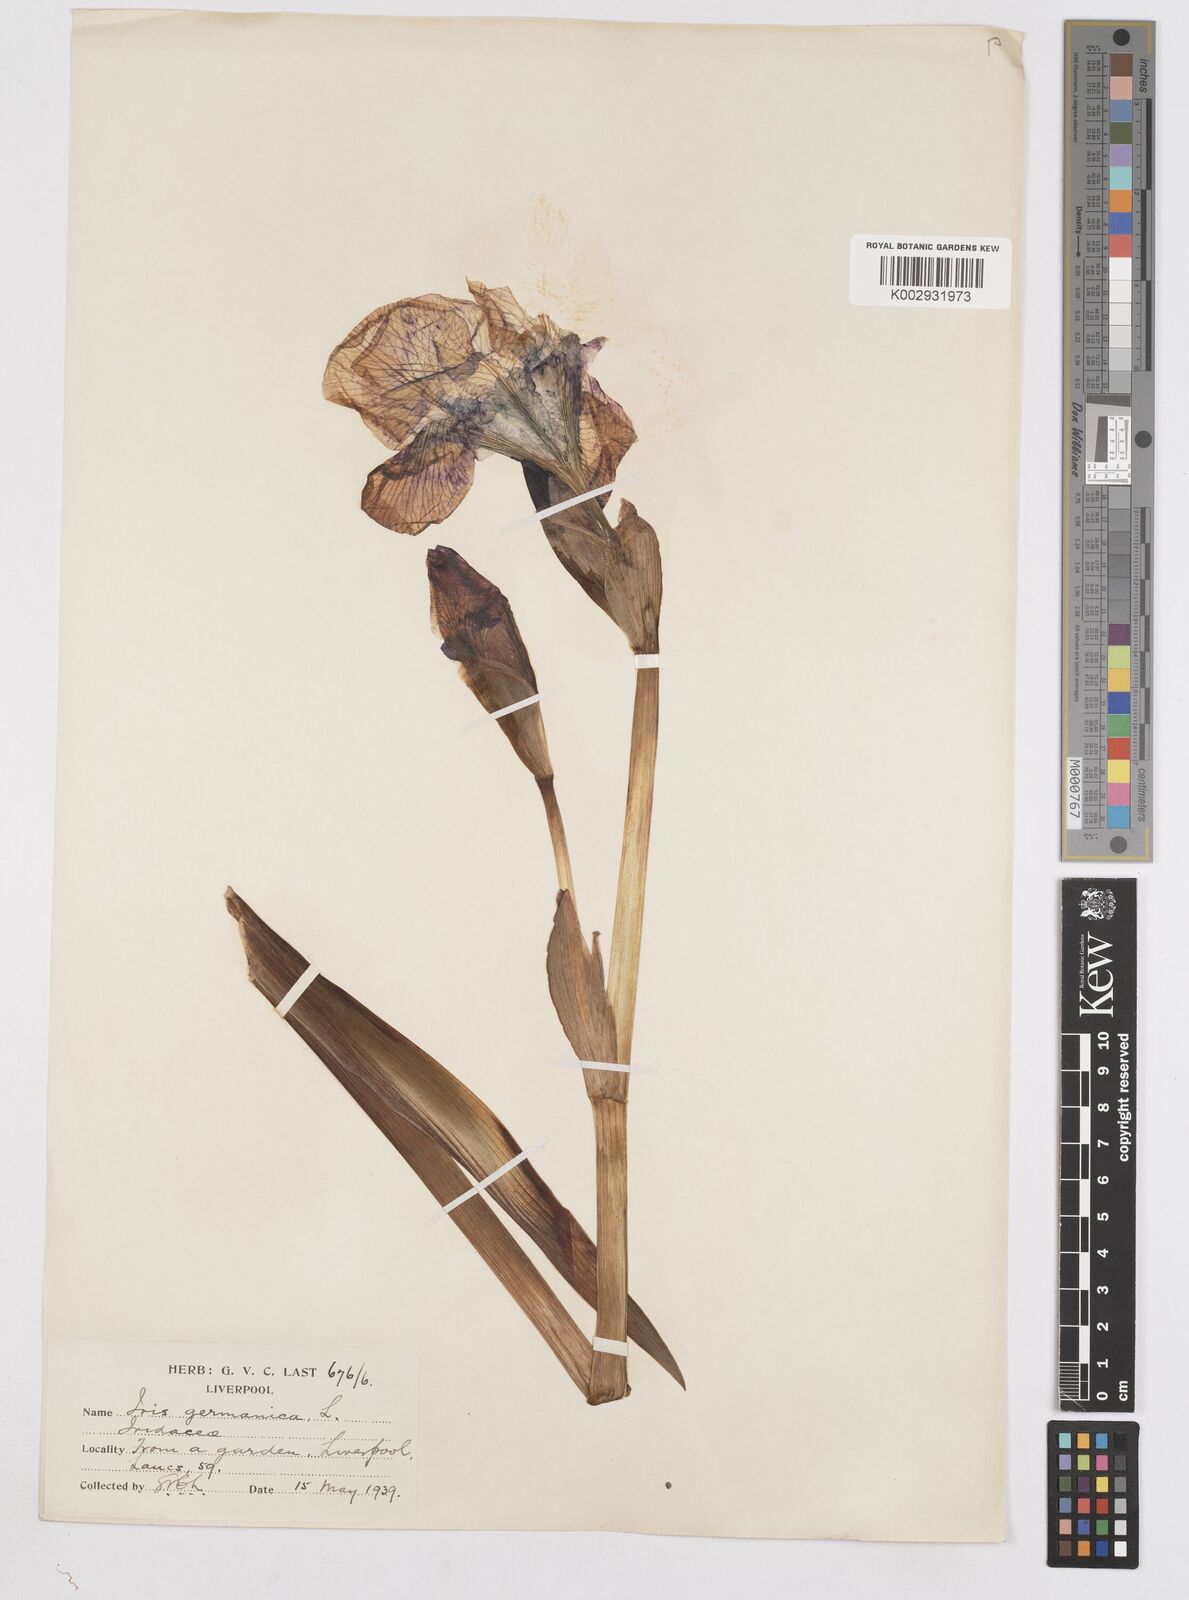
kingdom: Plantae
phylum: Tracheophyta
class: Liliopsida
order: Asparagales
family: Iridaceae
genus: Iris
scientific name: Iris
